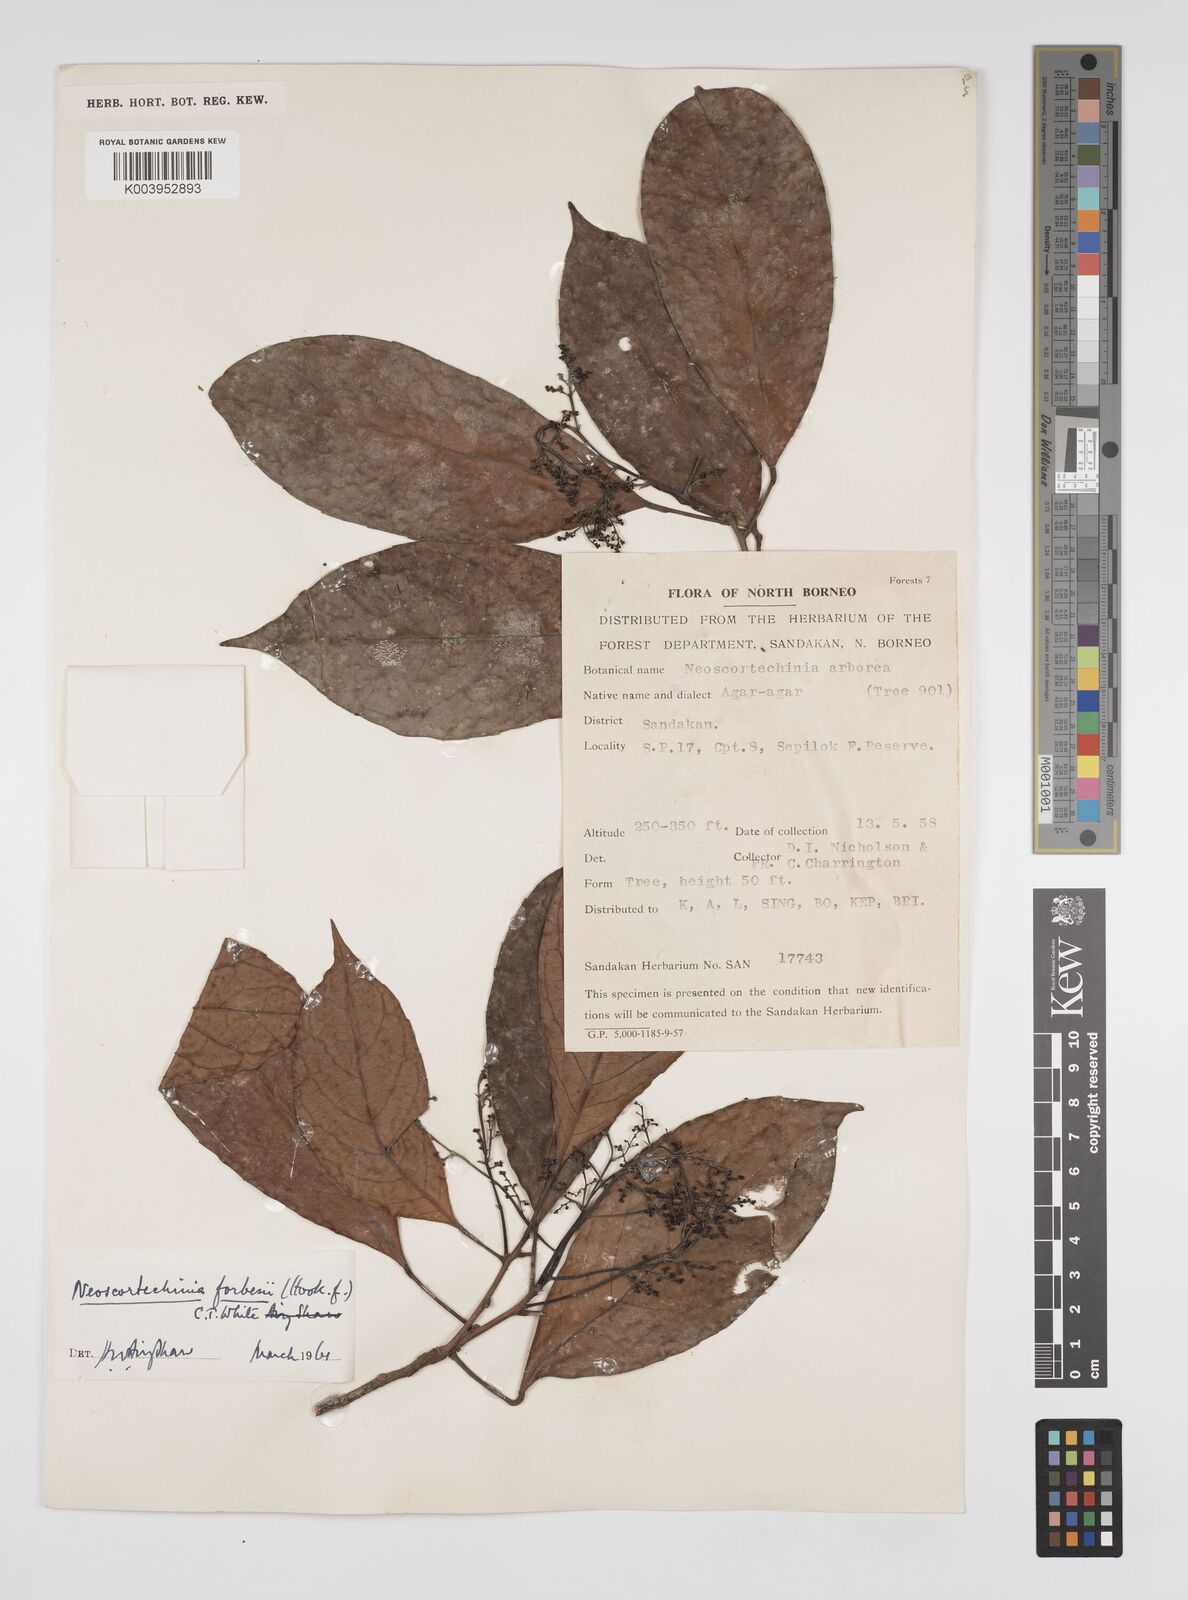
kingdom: Plantae
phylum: Tracheophyta
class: Magnoliopsida
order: Malpighiales
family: Euphorbiaceae
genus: Neoscortechinia
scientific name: Neoscortechinia philippinensis
